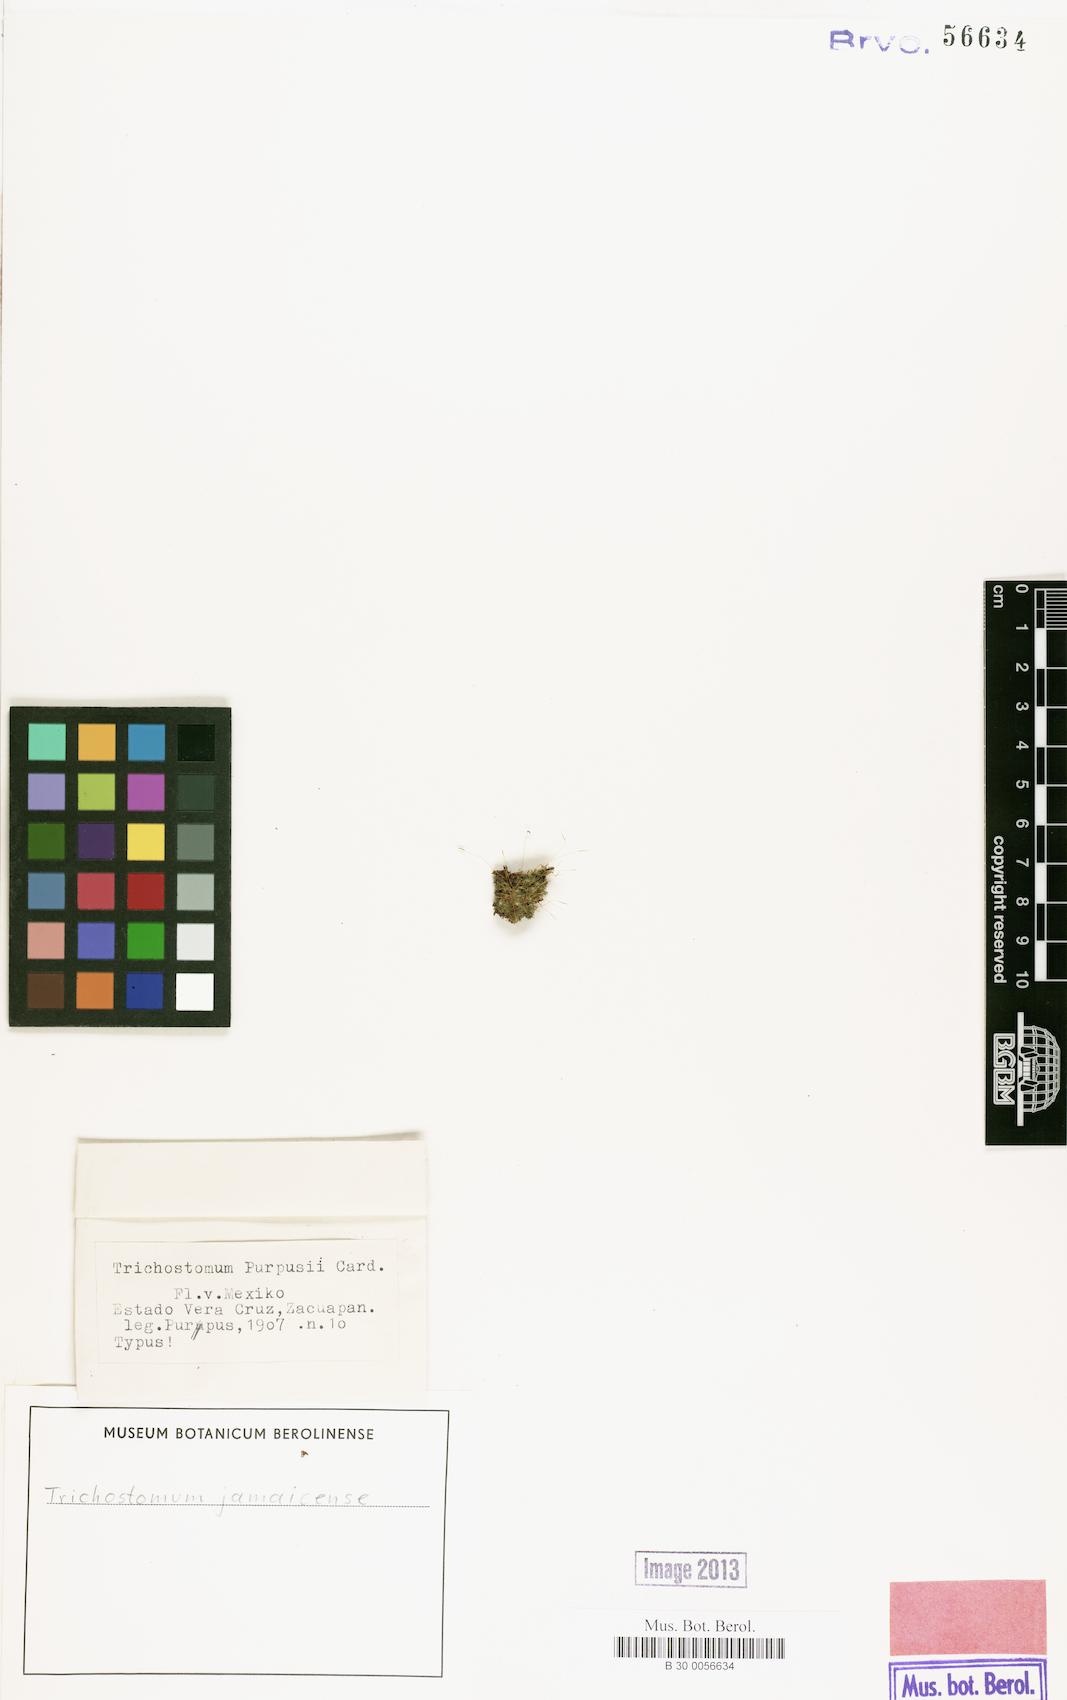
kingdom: Plantae
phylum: Bryophyta
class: Bryopsida
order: Pottiales
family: Pottiaceae
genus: Weissia
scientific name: Weissia jamaicensis
